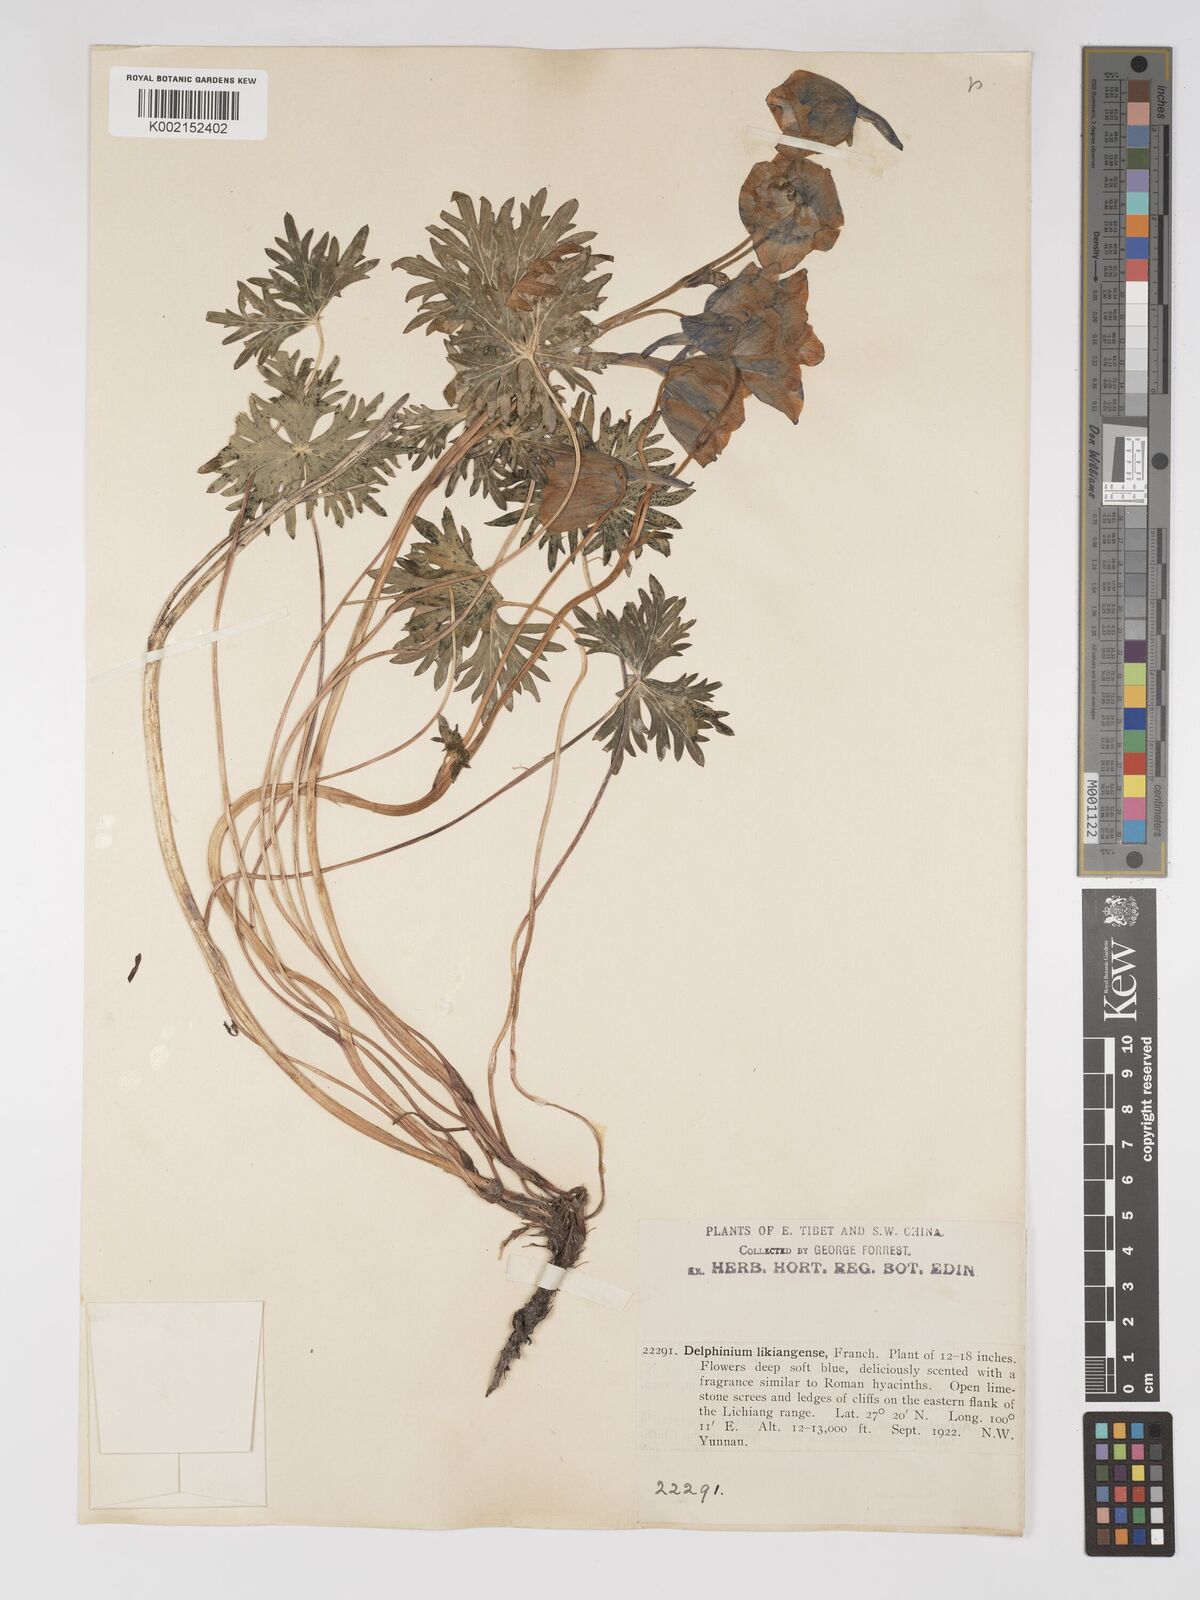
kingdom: Plantae
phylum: Tracheophyta
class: Magnoliopsida
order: Ranunculales
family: Ranunculaceae
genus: Delphinium
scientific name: Delphinium likiangense
